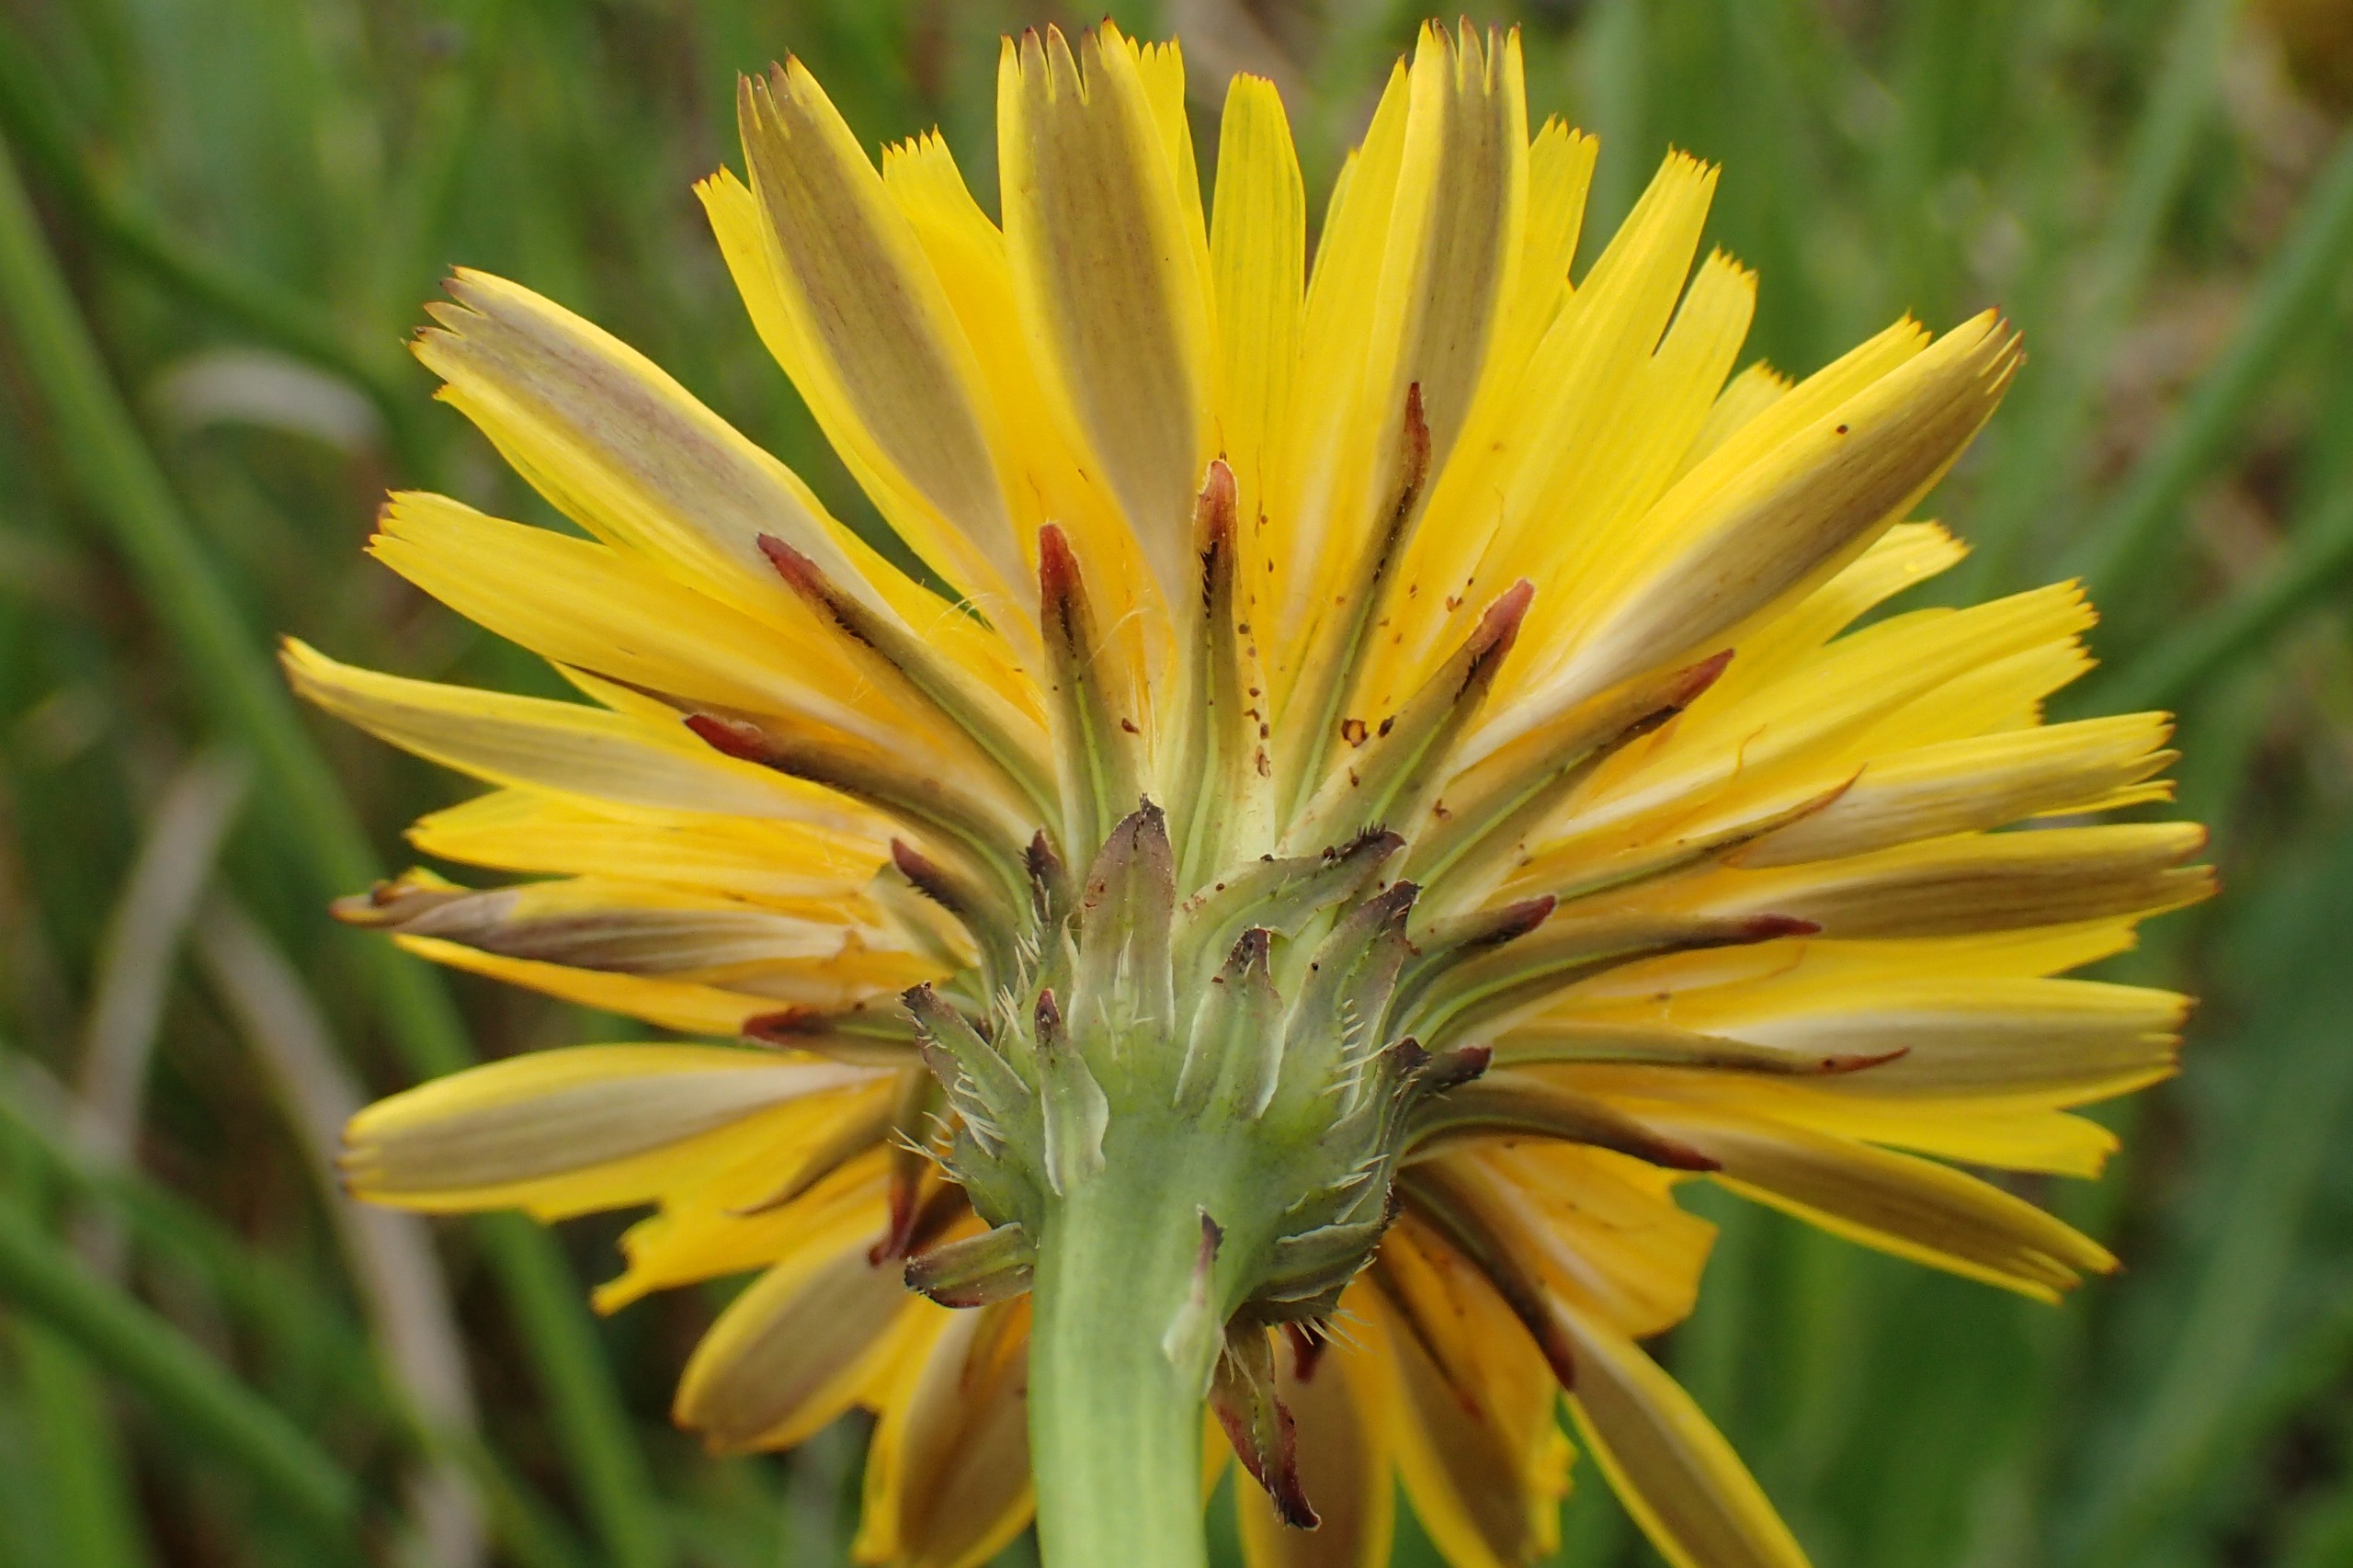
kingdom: Plantae
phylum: Tracheophyta
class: Magnoliopsida
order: Asterales
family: Asteraceae
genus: Hypochaeris
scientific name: Hypochaeris radicata
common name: Almindelig kongepen
